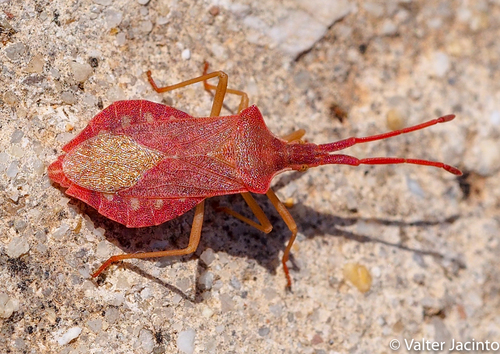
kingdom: Animalia
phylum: Arthropoda
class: Insecta
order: Hemiptera
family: Coreidae
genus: Haploprocta
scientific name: Haploprocta sulcicornis
